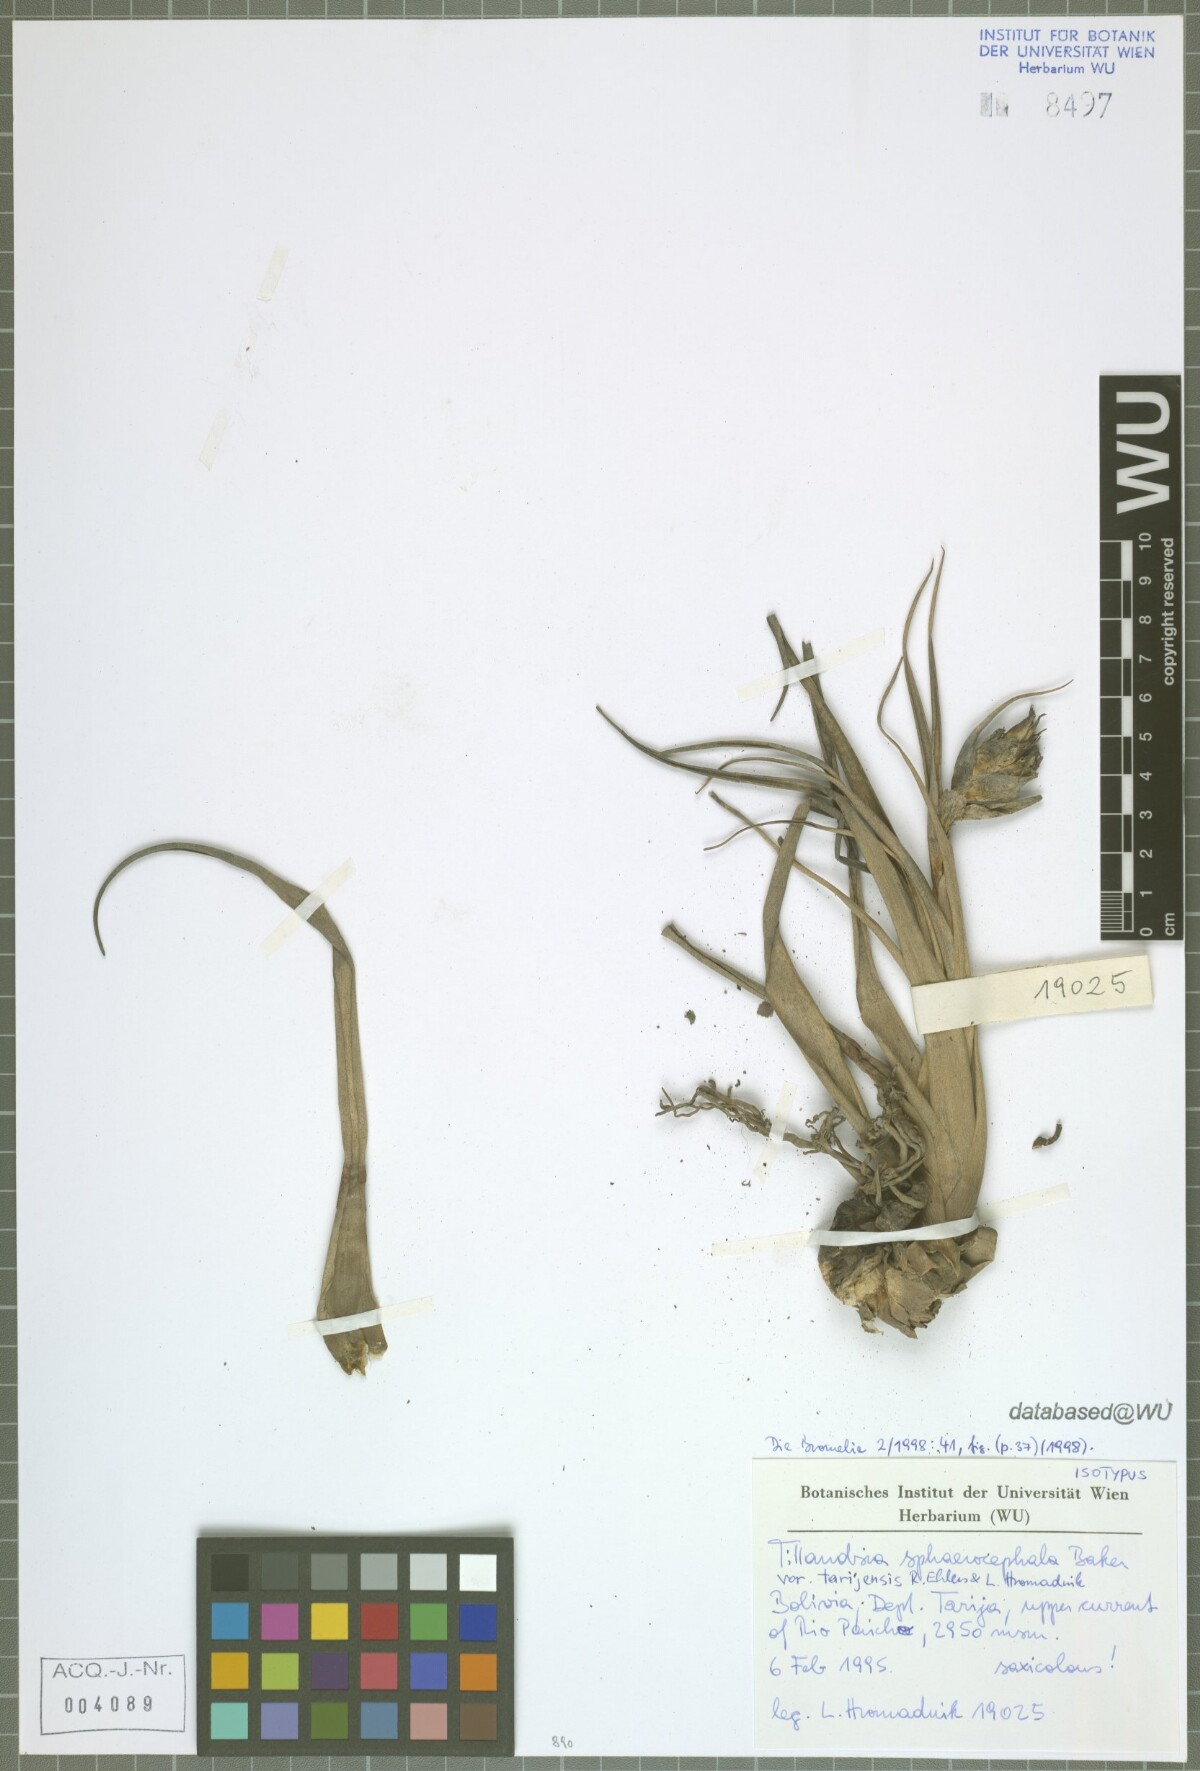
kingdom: Plantae
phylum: Tracheophyta
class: Liliopsida
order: Poales
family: Bromeliaceae
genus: Tillandsia
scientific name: Tillandsia sphaerocephala
